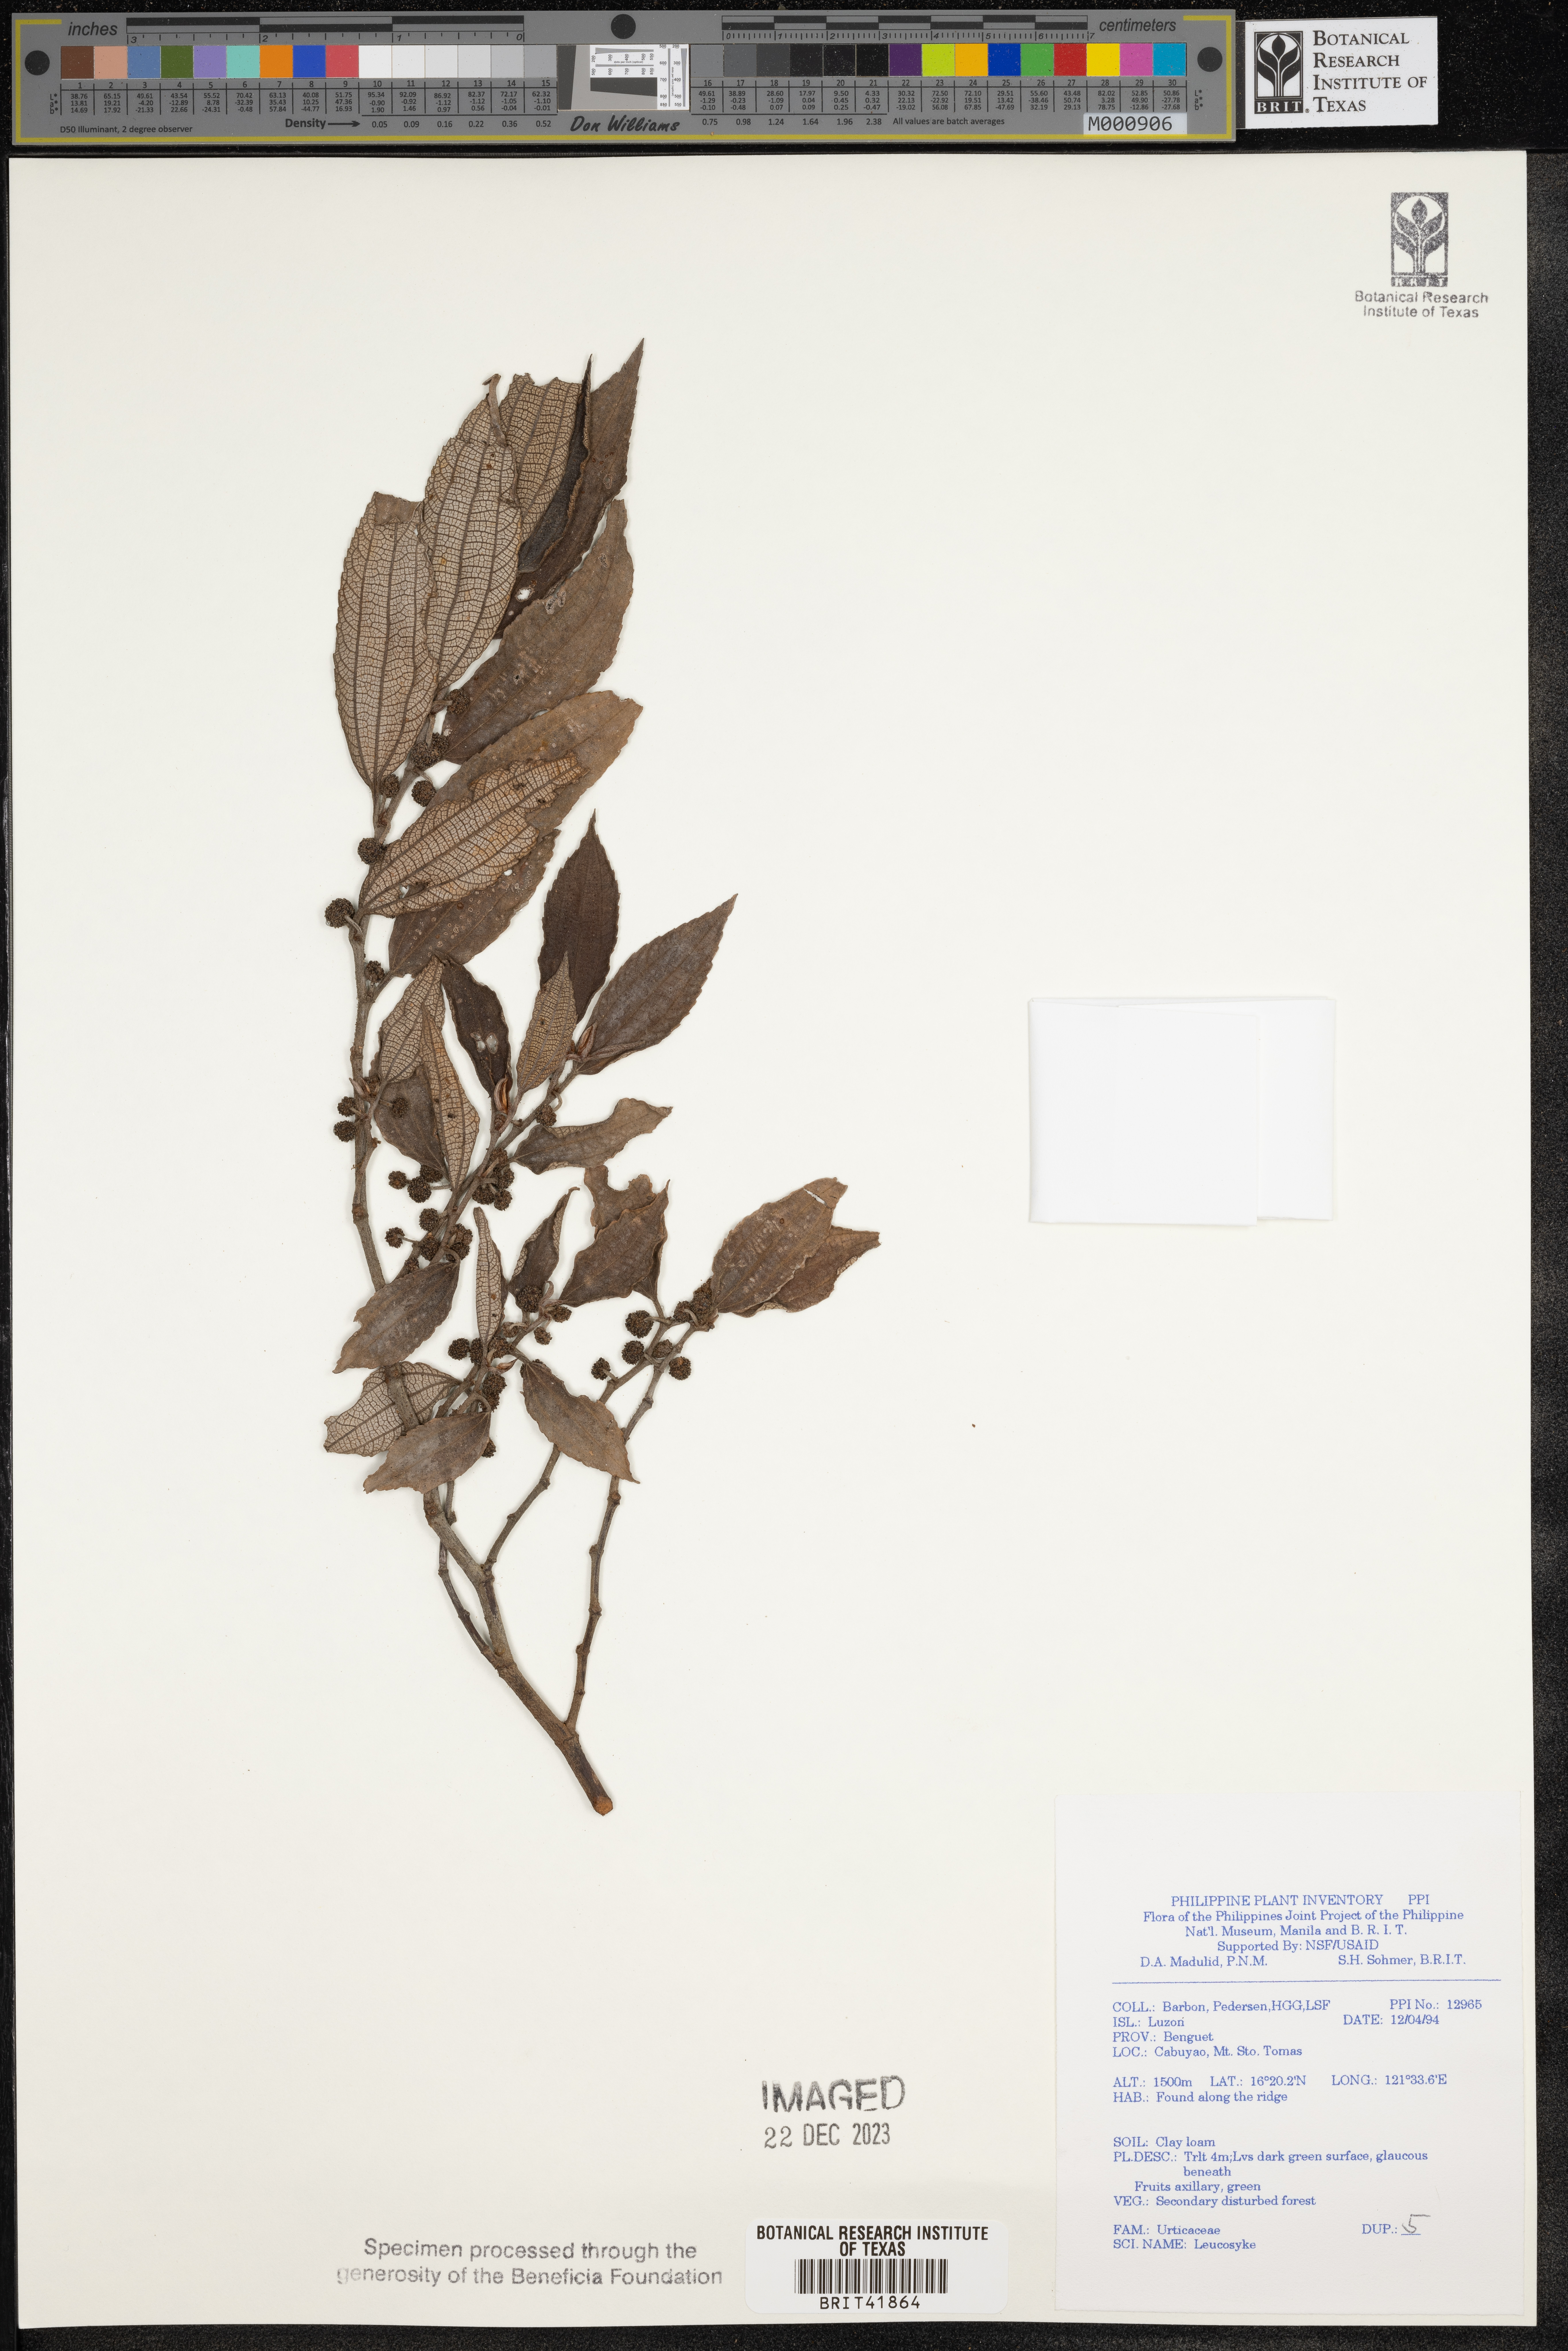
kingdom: Plantae
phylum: Tracheophyta
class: Magnoliopsida
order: Rosales
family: Urticaceae
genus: Leucosyke
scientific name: Leucosyke
